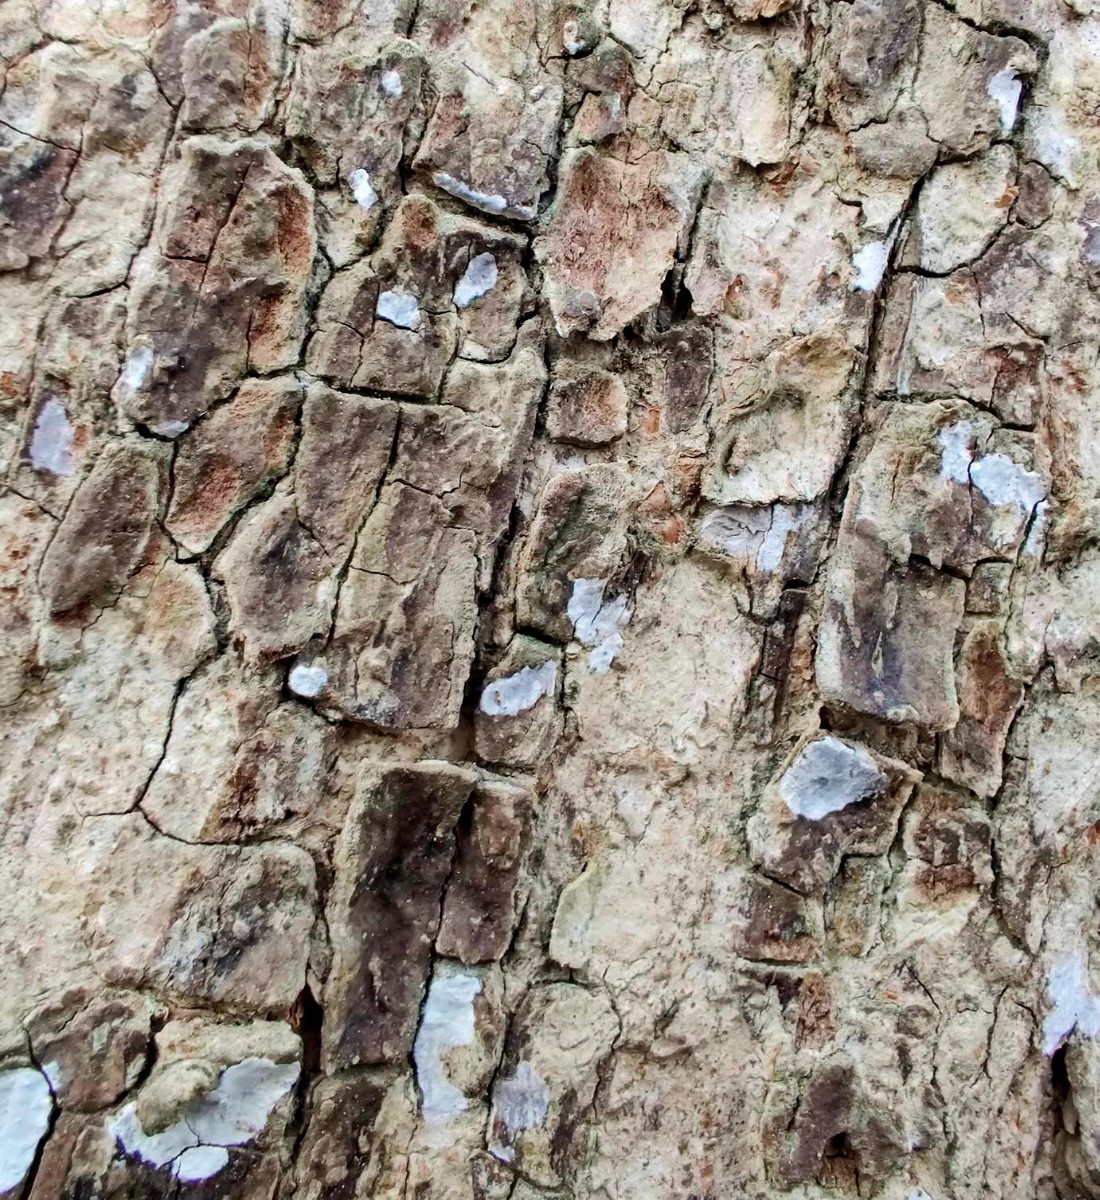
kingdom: Fungi
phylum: Basidiomycota
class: Agaricomycetes
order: Agaricales
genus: Dendrothele
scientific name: Dendrothele acerina
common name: navr-kalkplet
